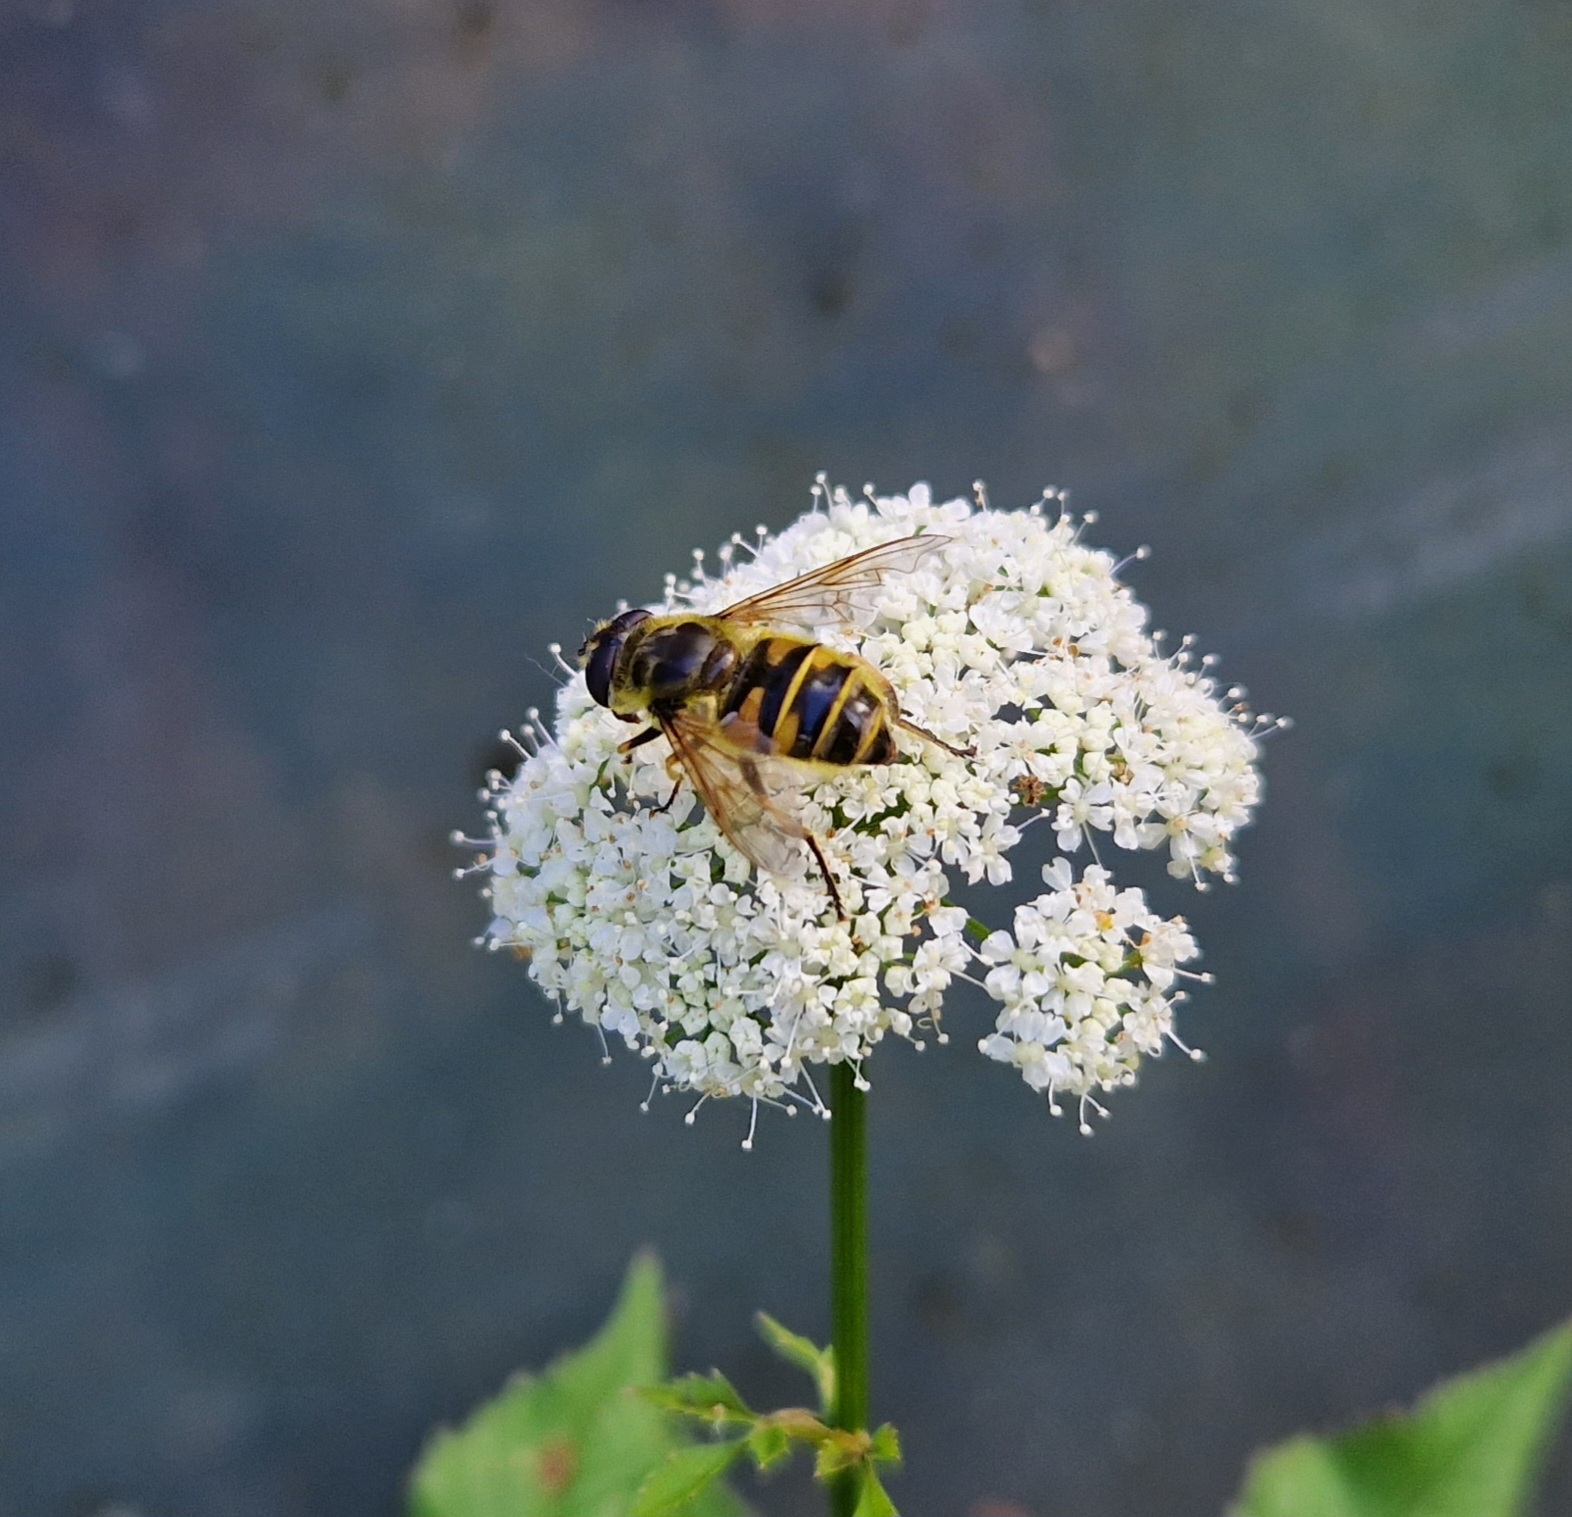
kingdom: Animalia
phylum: Arthropoda
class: Insecta
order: Diptera
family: Syrphidae
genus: Myathropa
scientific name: Myathropa florea
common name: Dødningehoved-svirreflue
